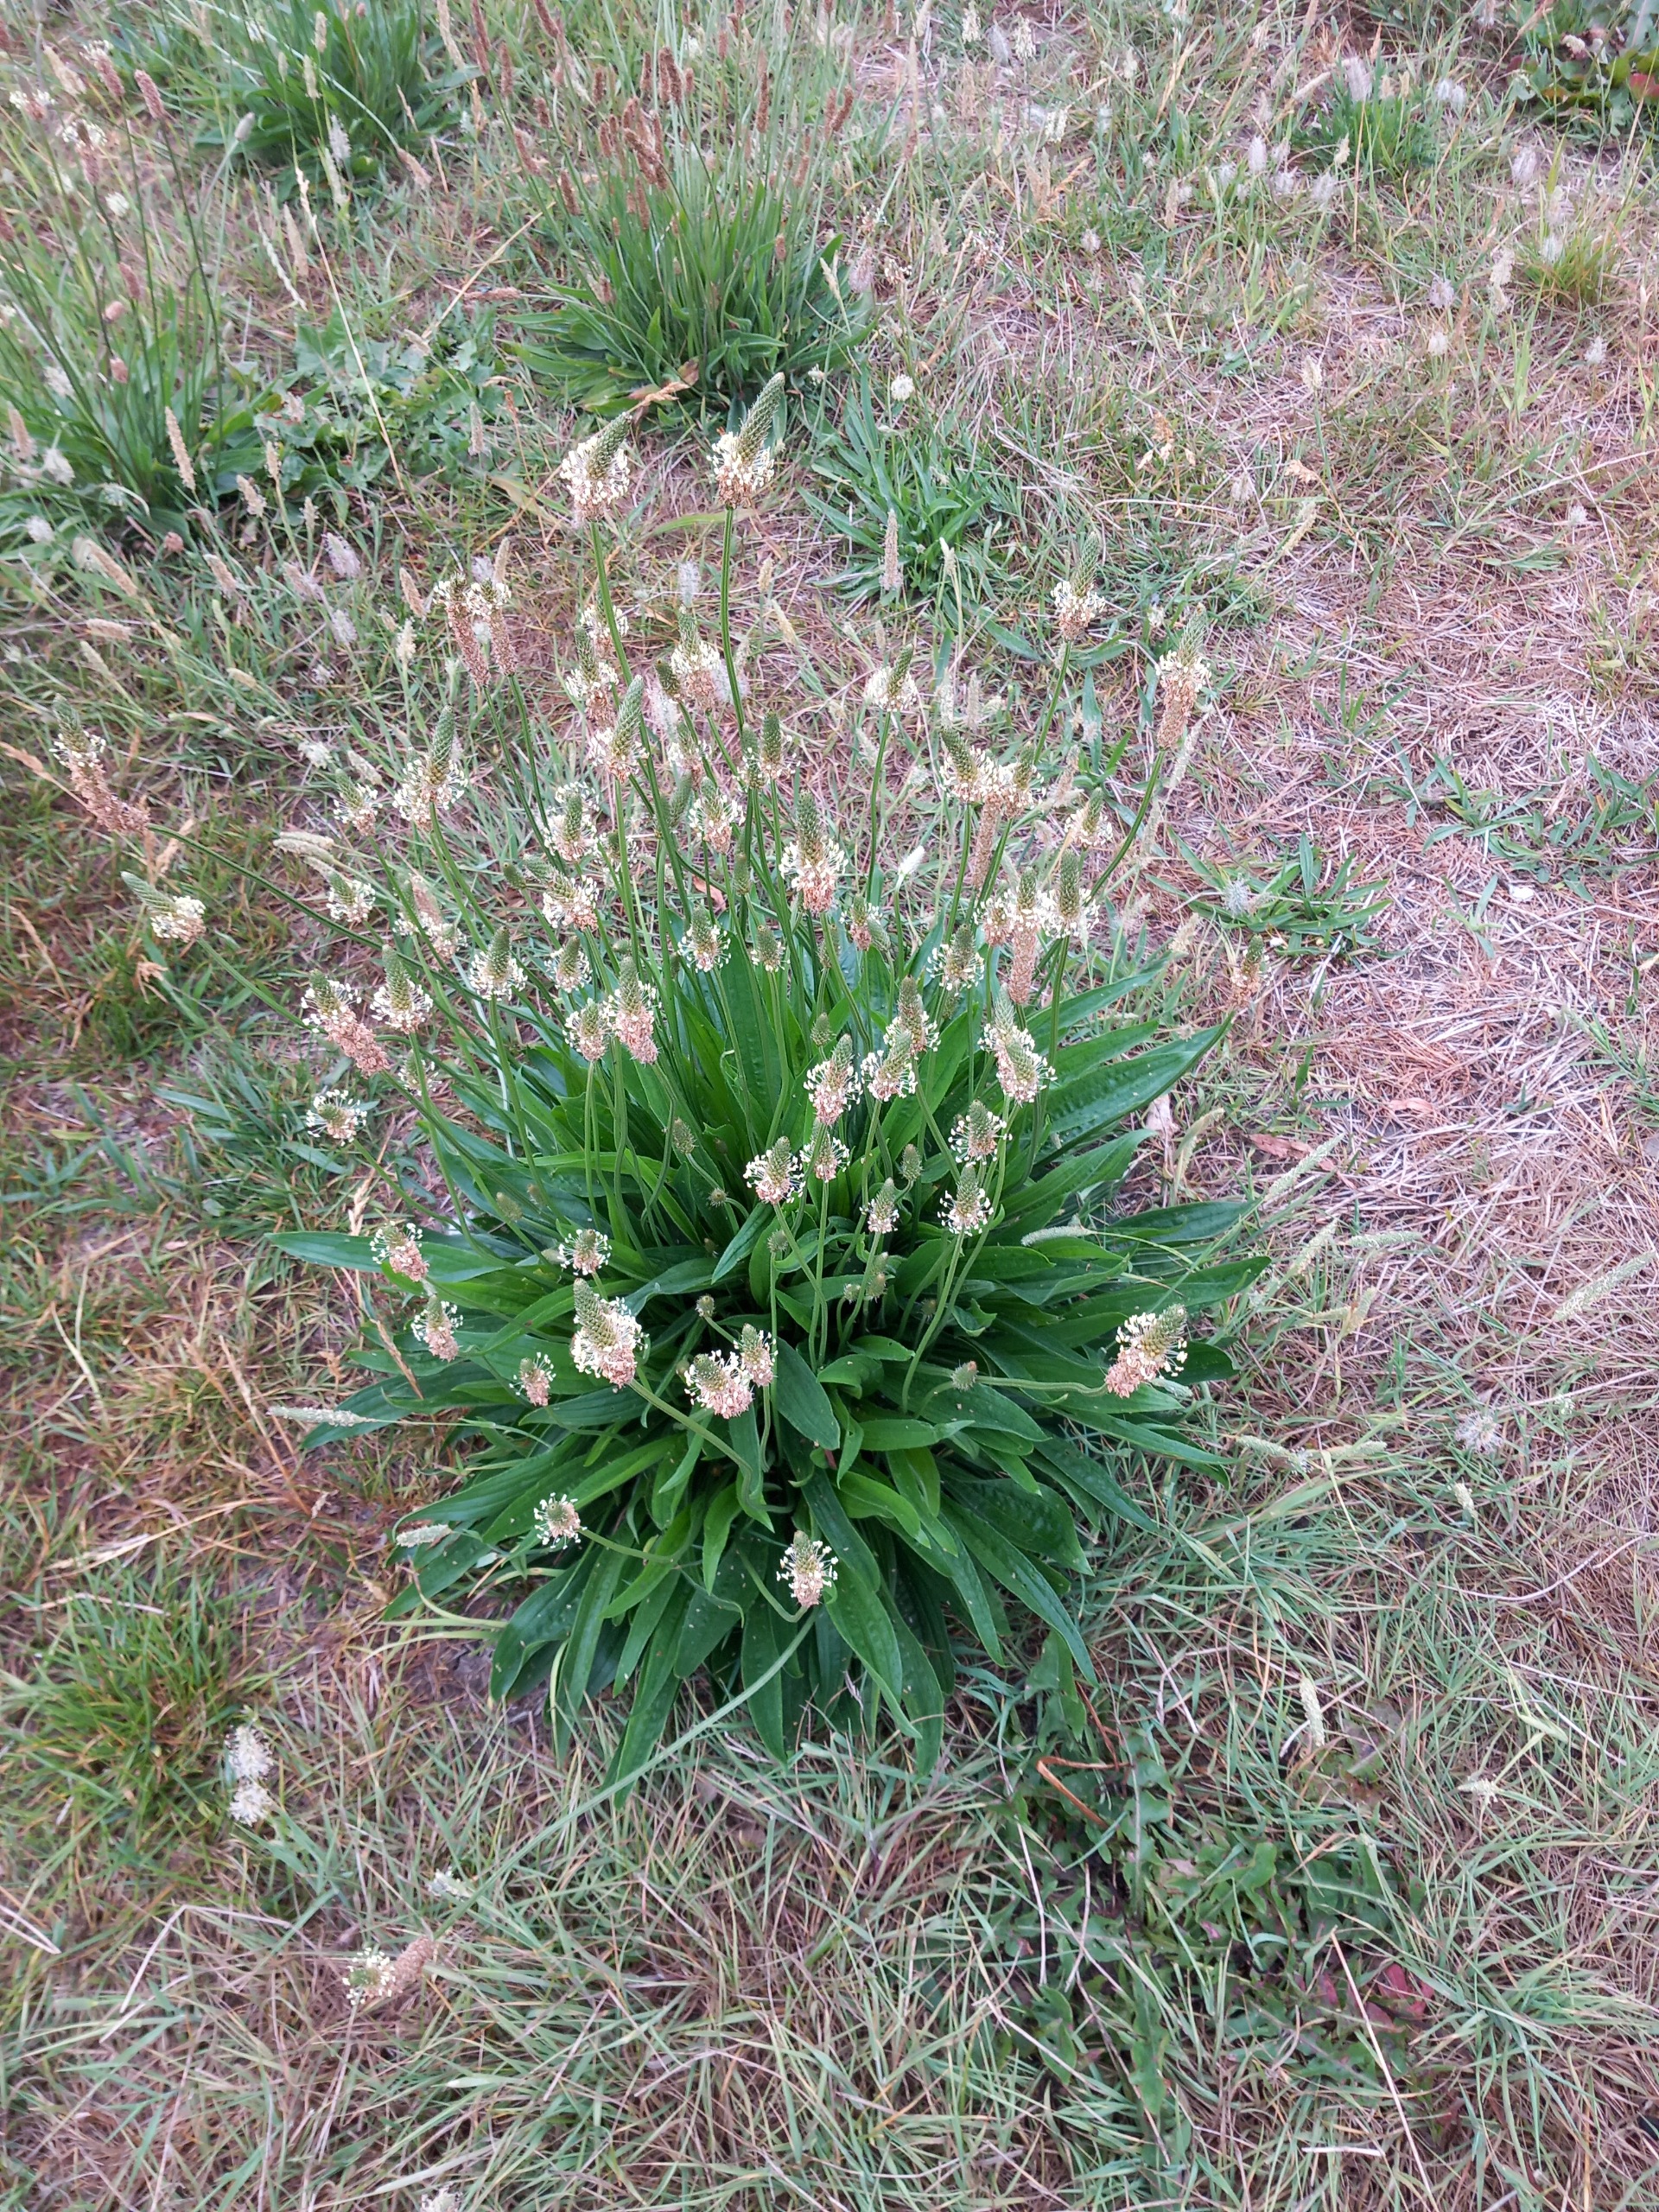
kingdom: Plantae
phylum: Tracheophyta
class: Magnoliopsida
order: Lamiales
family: Plantaginaceae
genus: Plantago
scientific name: Plantago lanceolata
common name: Lancet-vejbred
